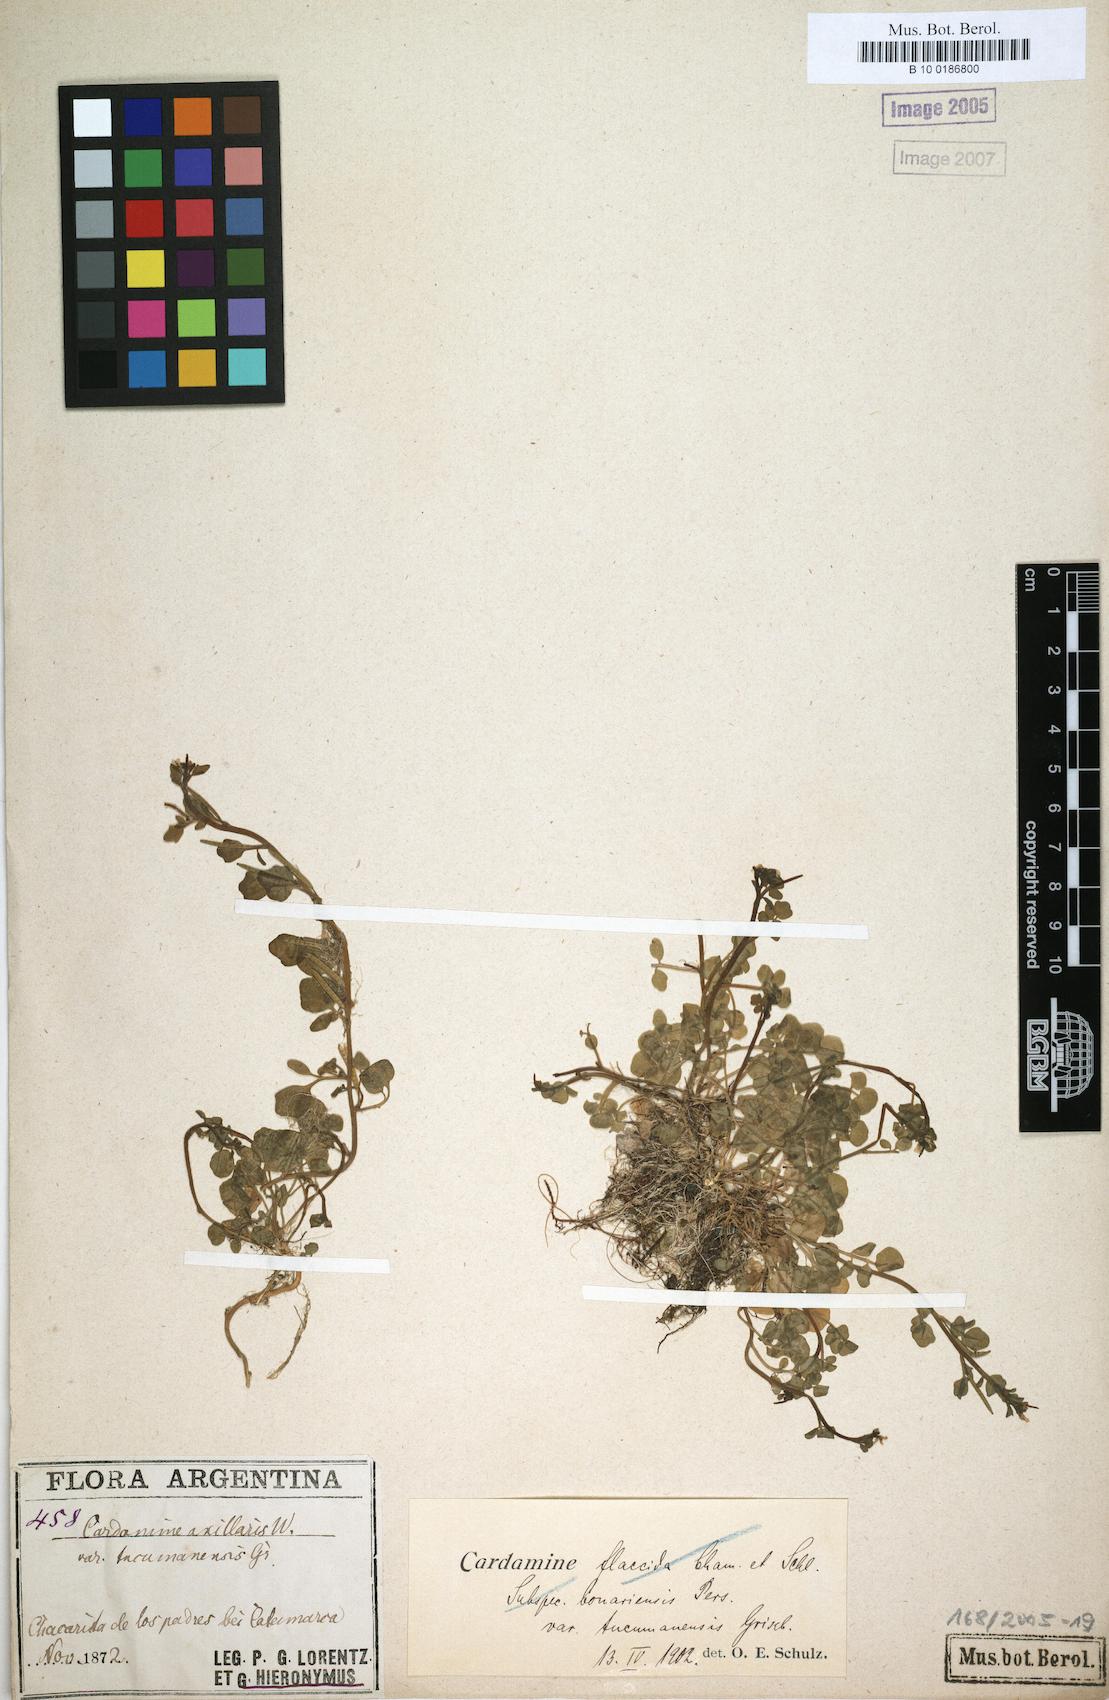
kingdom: Plantae
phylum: Tracheophyta
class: Magnoliopsida
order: Brassicales
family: Brassicaceae
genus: Cardamine
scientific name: Cardamine flaccida
